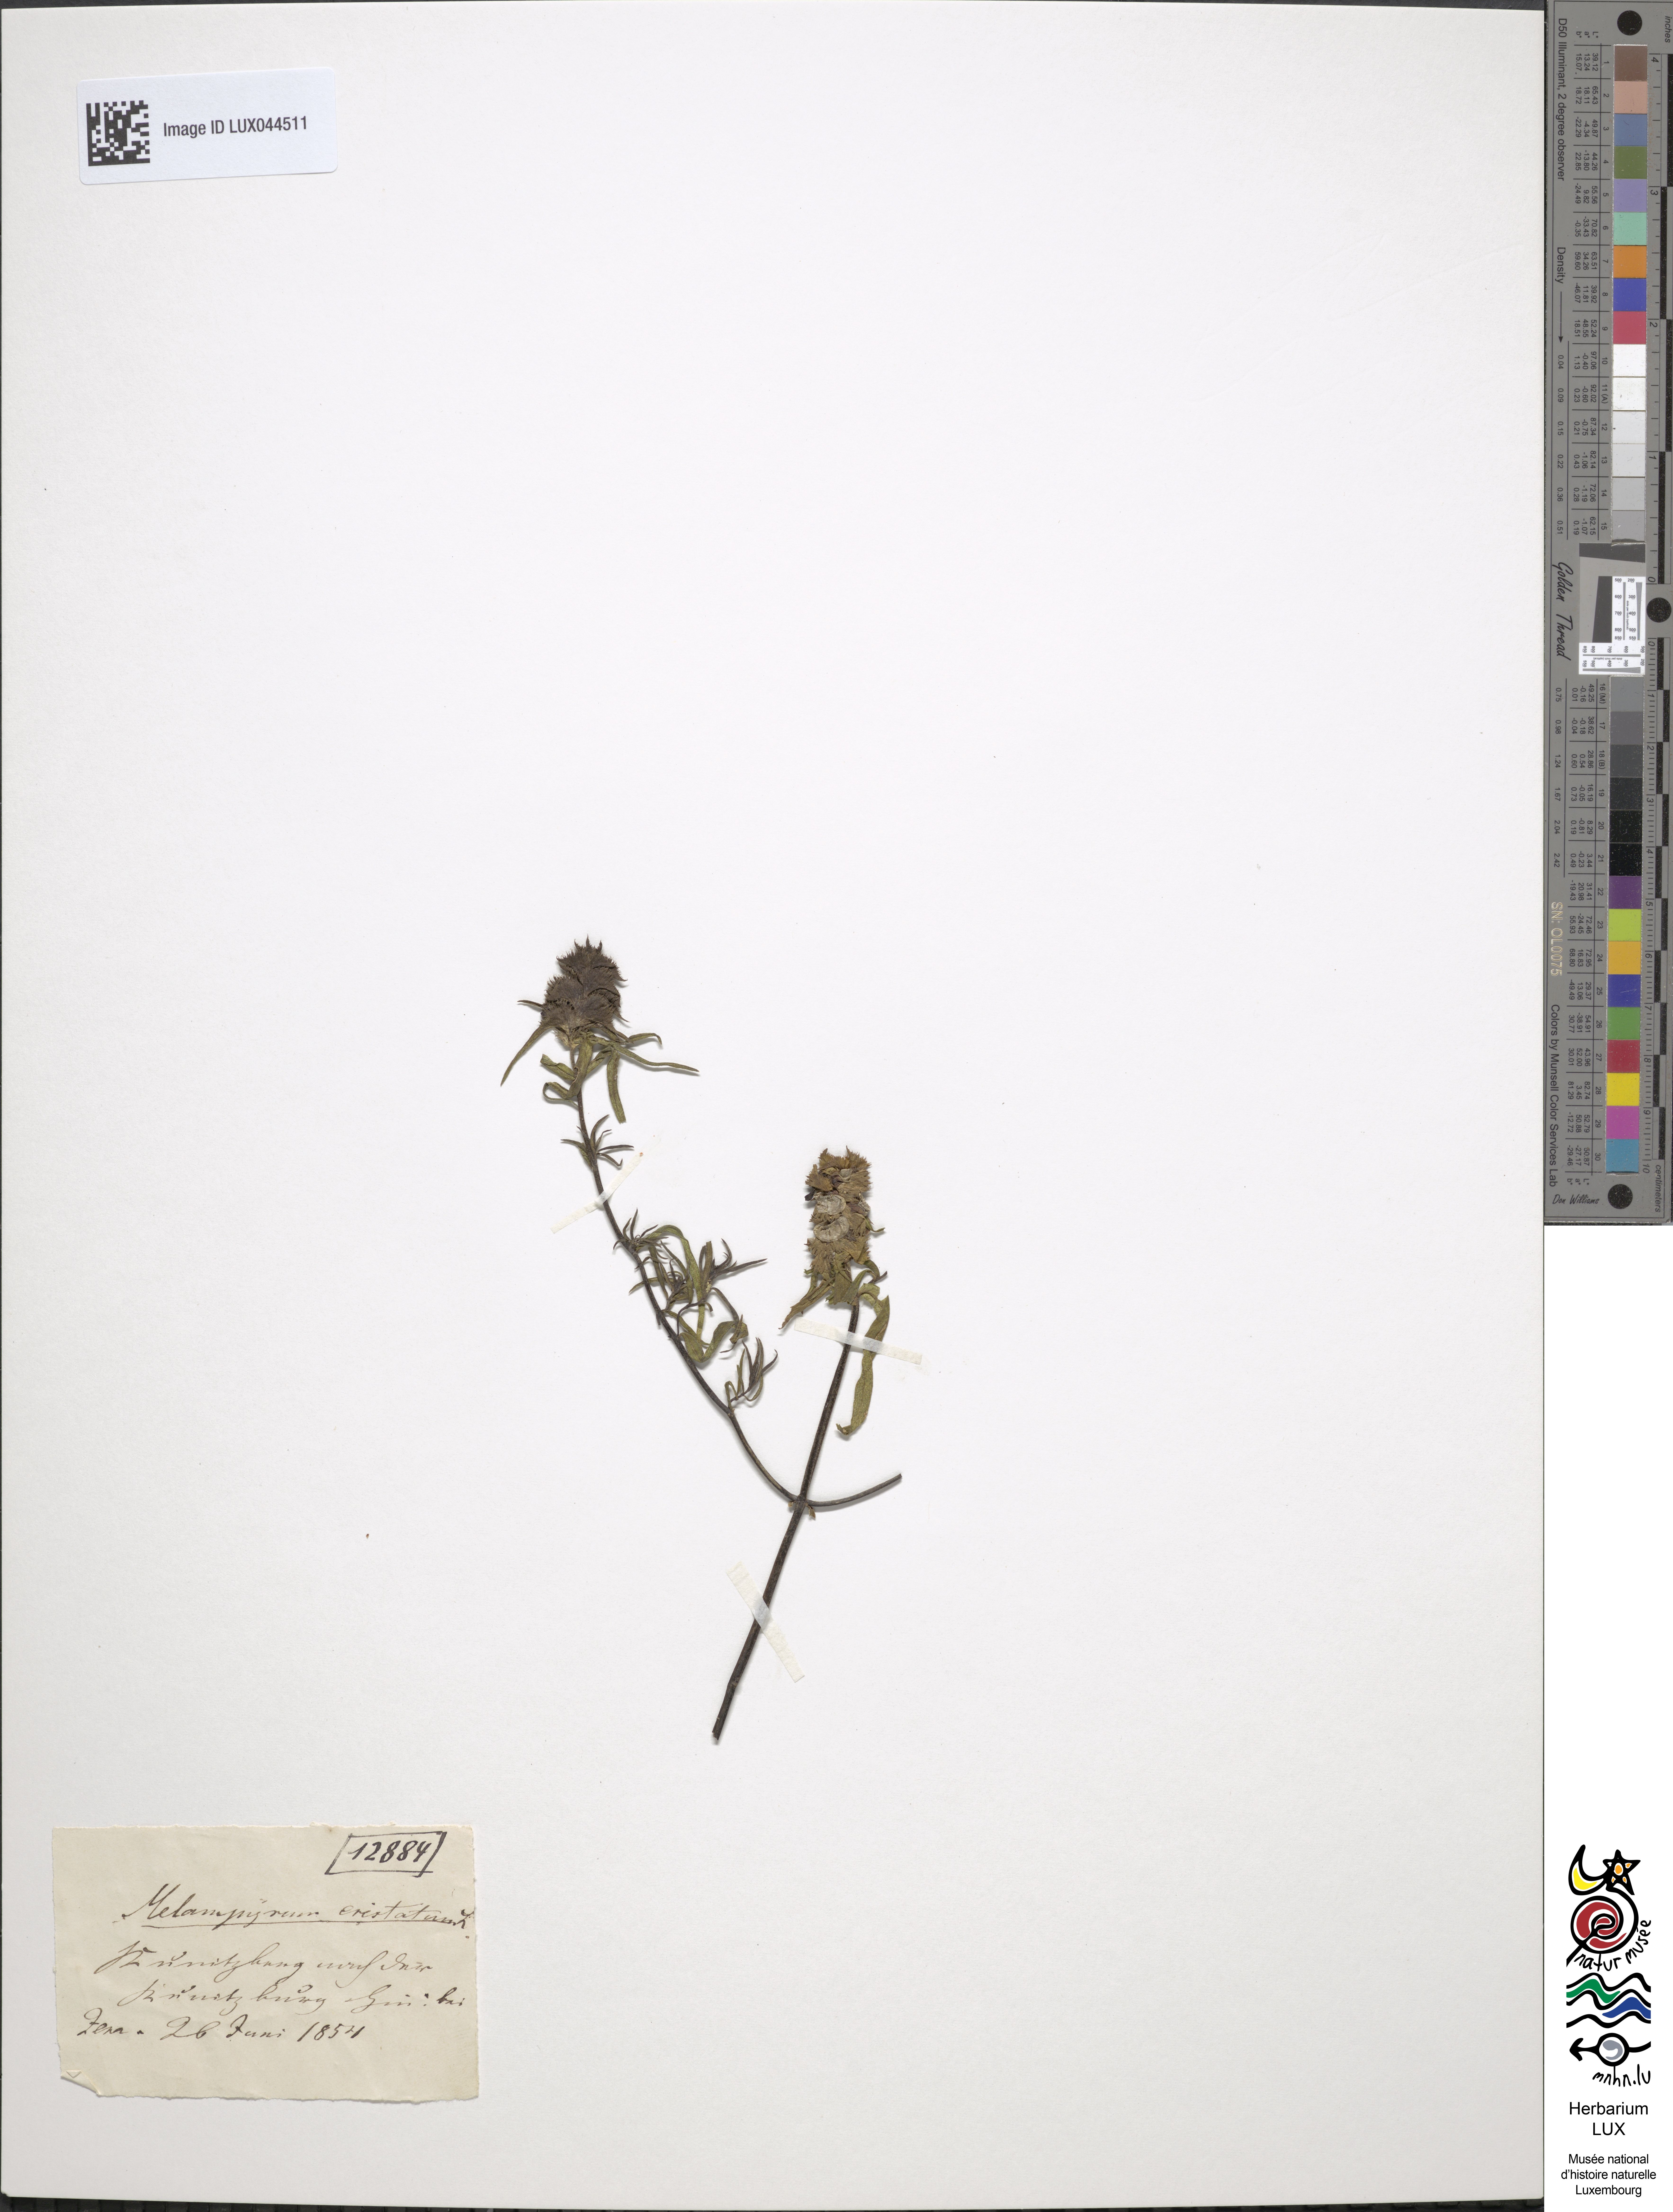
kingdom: Plantae
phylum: Tracheophyta
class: Magnoliopsida
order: Lamiales
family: Orobanchaceae
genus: Melampyrum
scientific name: Melampyrum cristatum
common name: Crested cow-wheat
